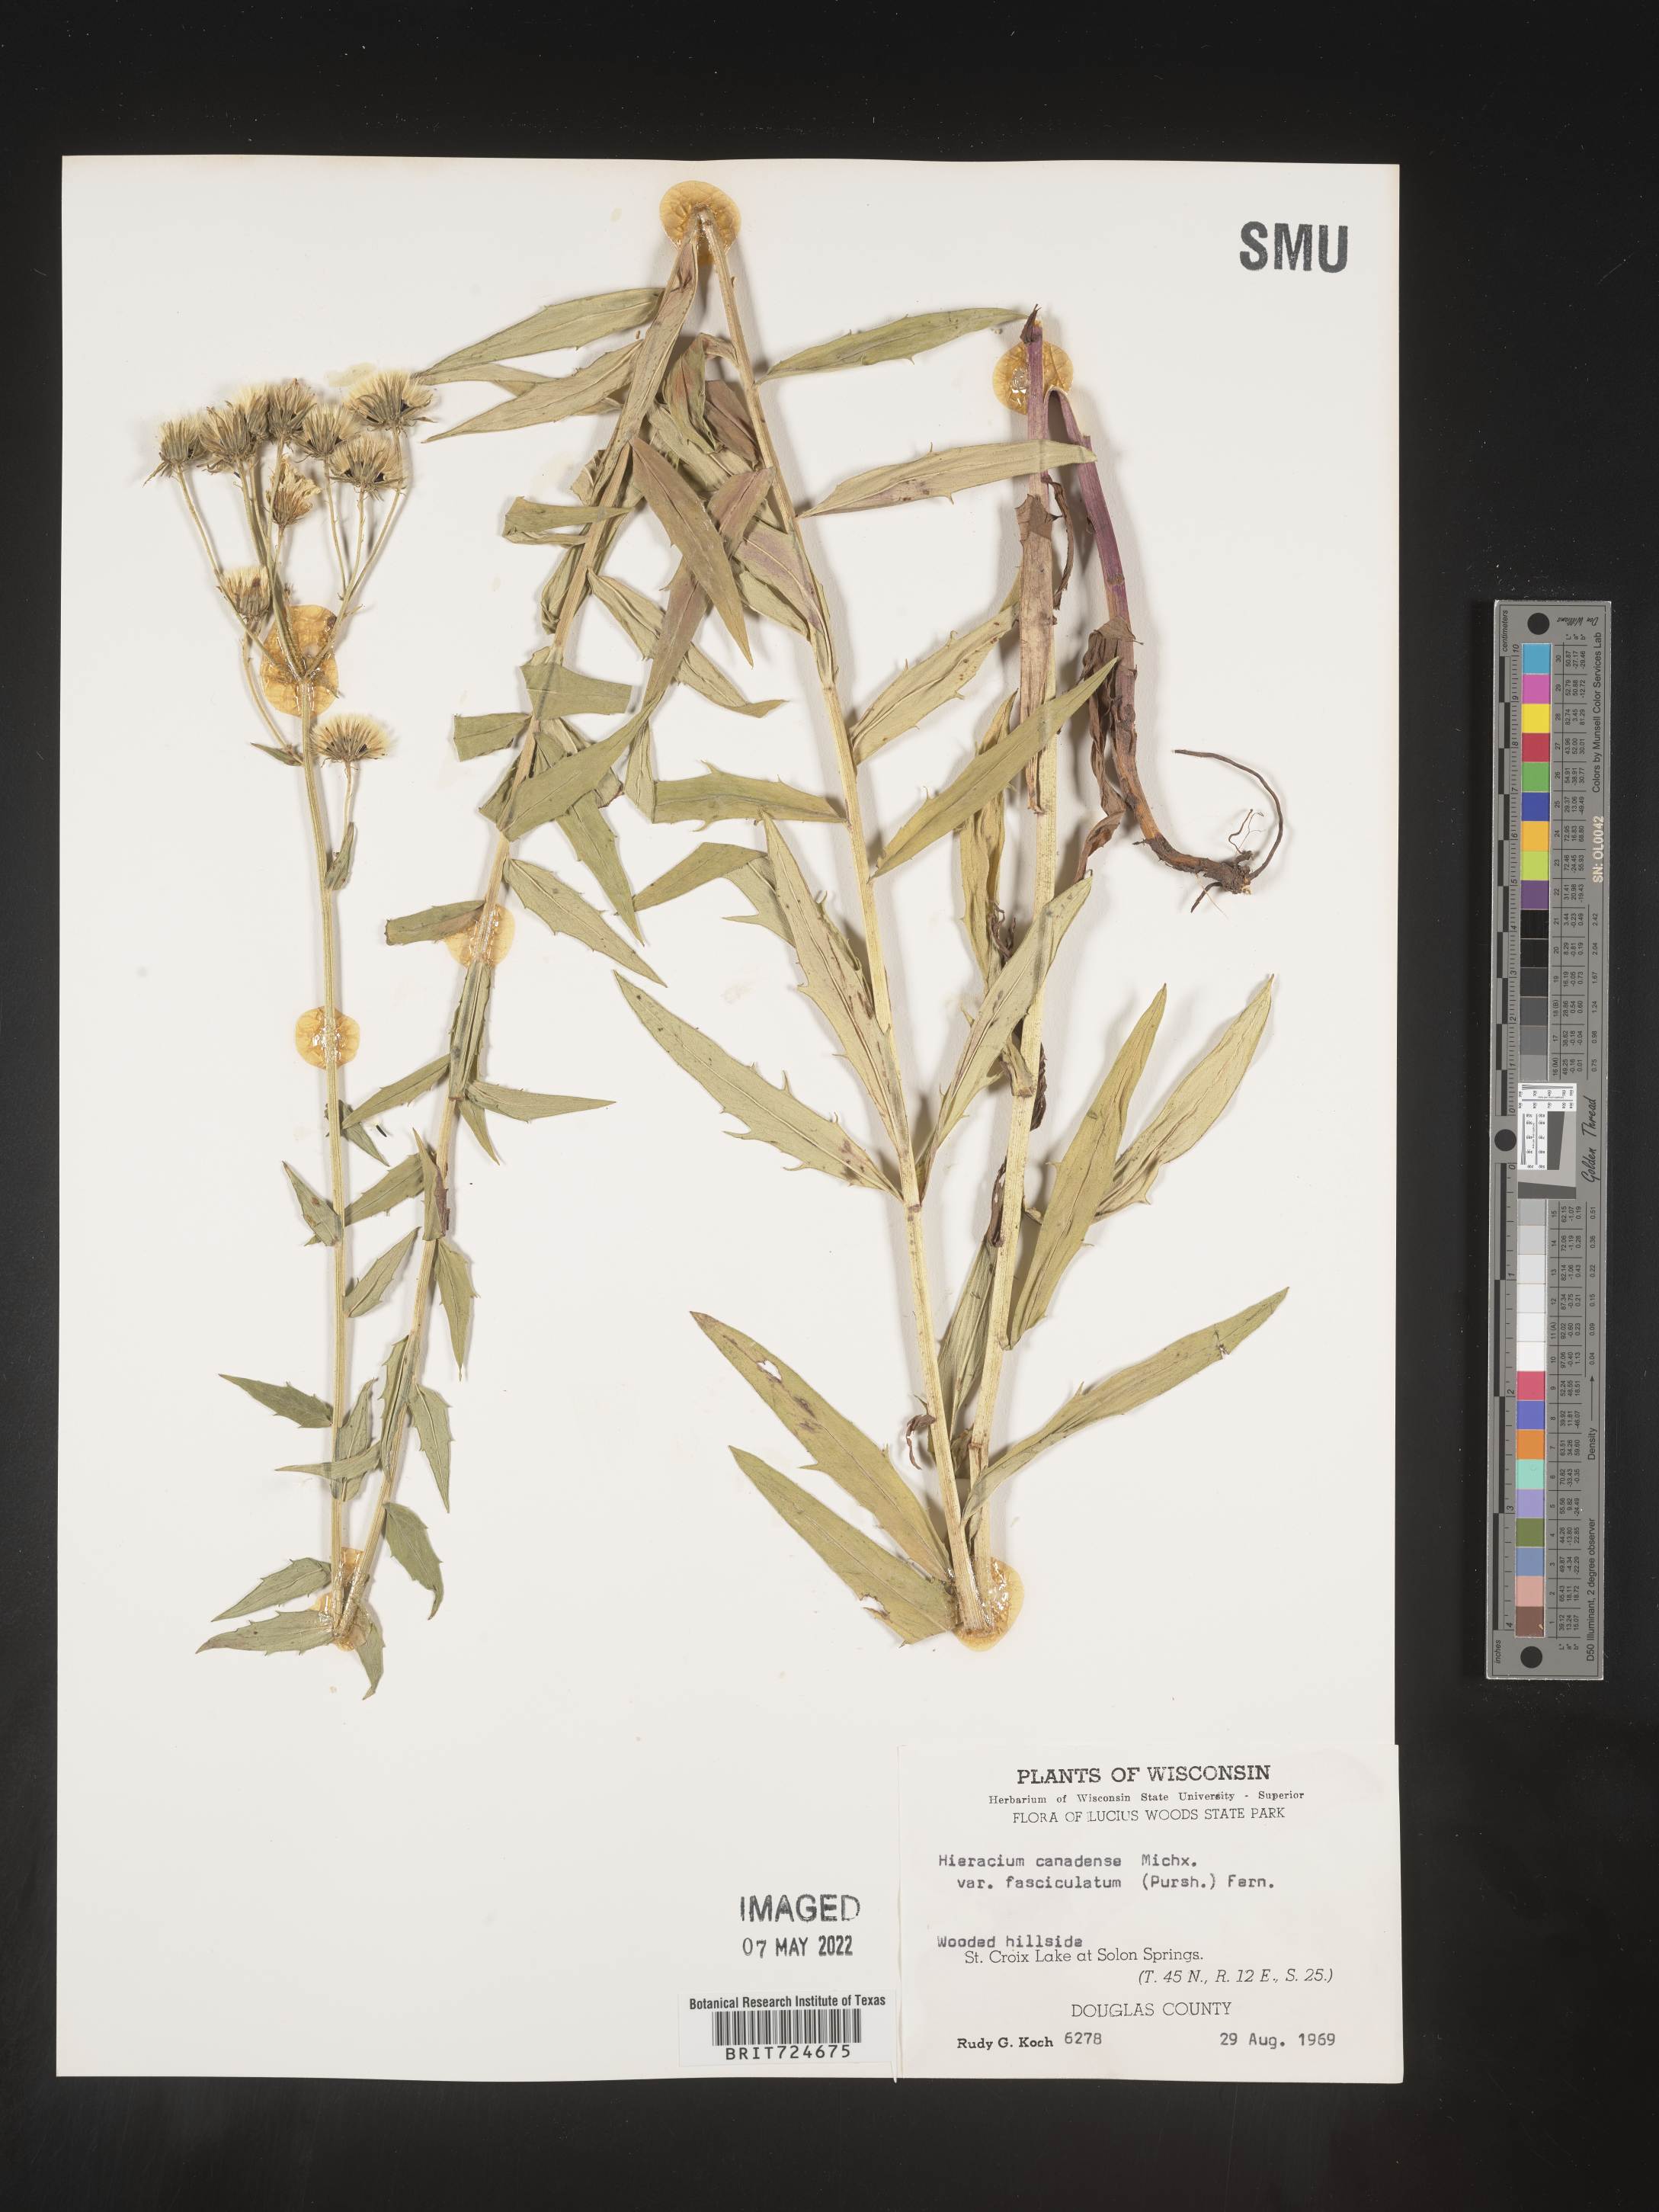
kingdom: Plantae
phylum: Tracheophyta
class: Magnoliopsida
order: Asterales
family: Asteraceae
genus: Hieracium
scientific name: Hieracium
